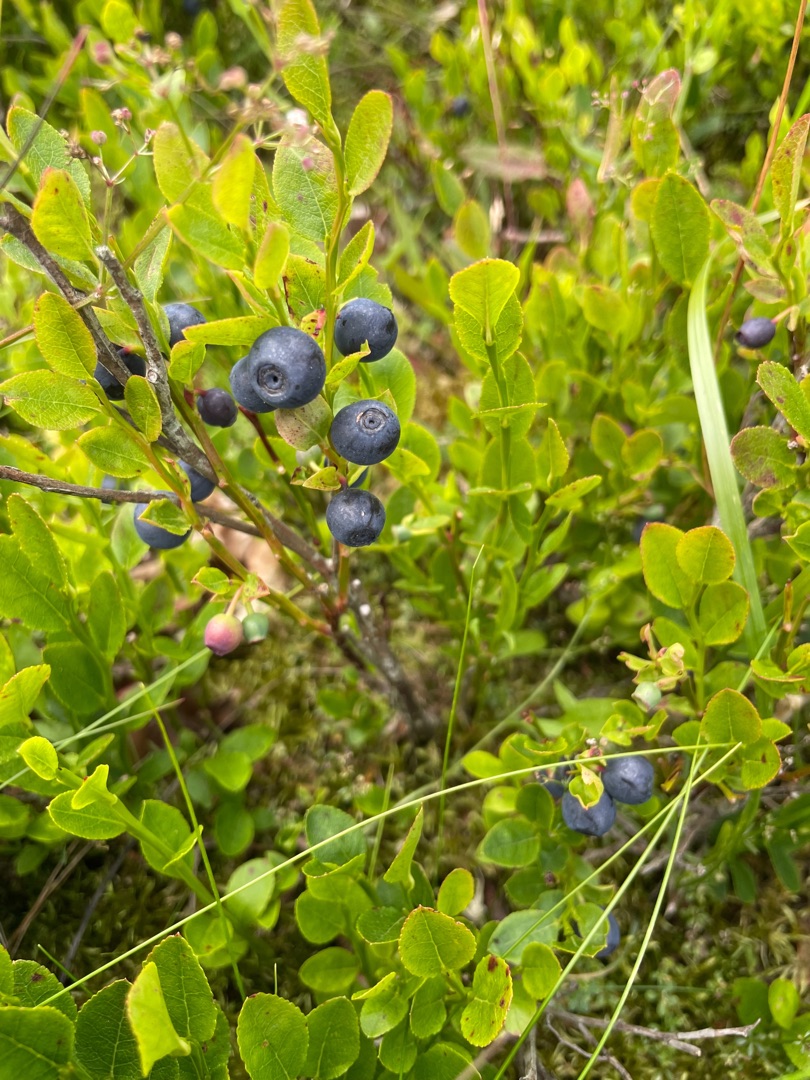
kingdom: Plantae
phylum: Tracheophyta
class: Magnoliopsida
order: Ericales
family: Ericaceae
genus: Vaccinium
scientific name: Vaccinium myrtillus
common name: Blåbær
